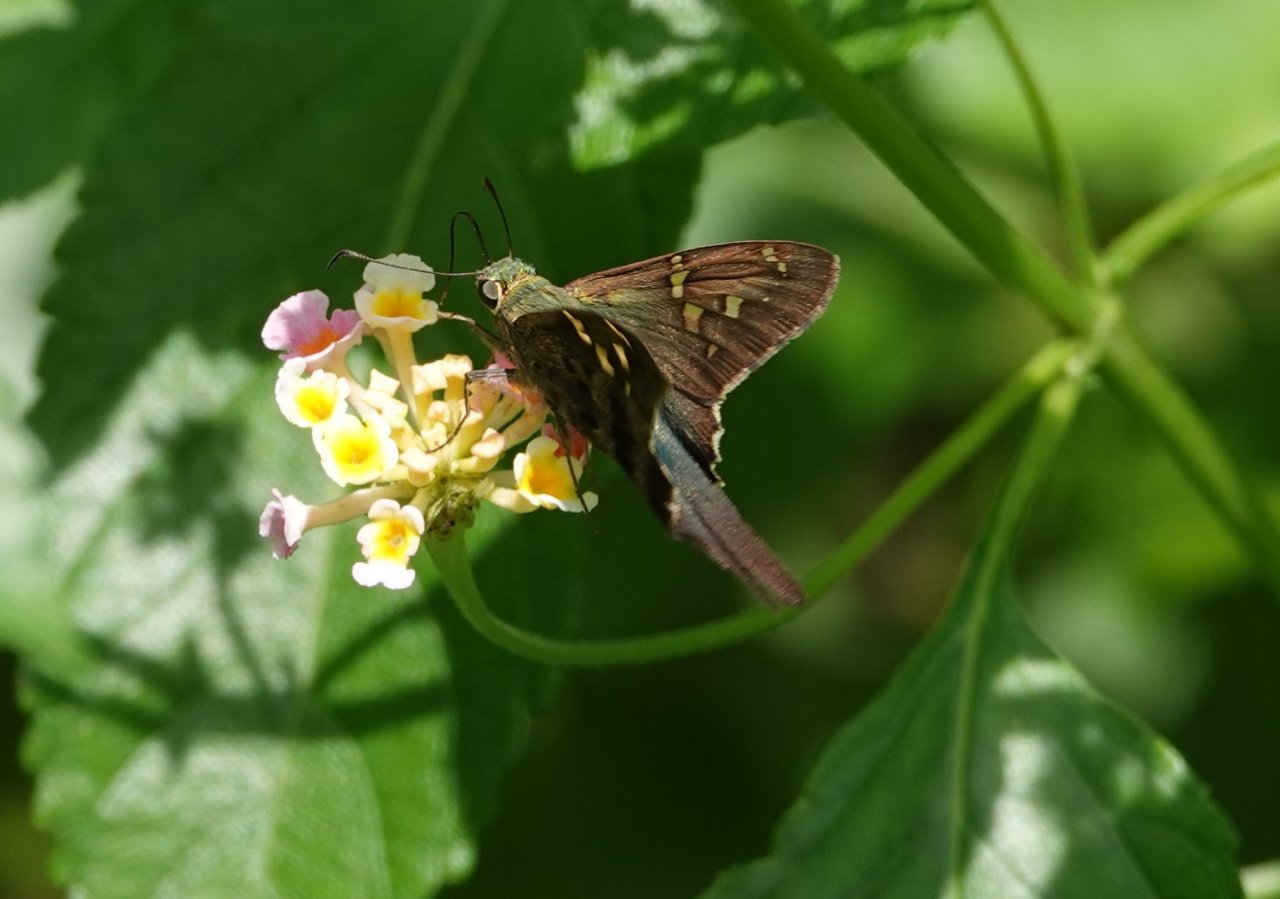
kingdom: Animalia
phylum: Arthropoda
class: Insecta
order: Lepidoptera
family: Hesperiidae
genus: Urbanus
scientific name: Urbanus proteus
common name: Long-tailed Skipper
